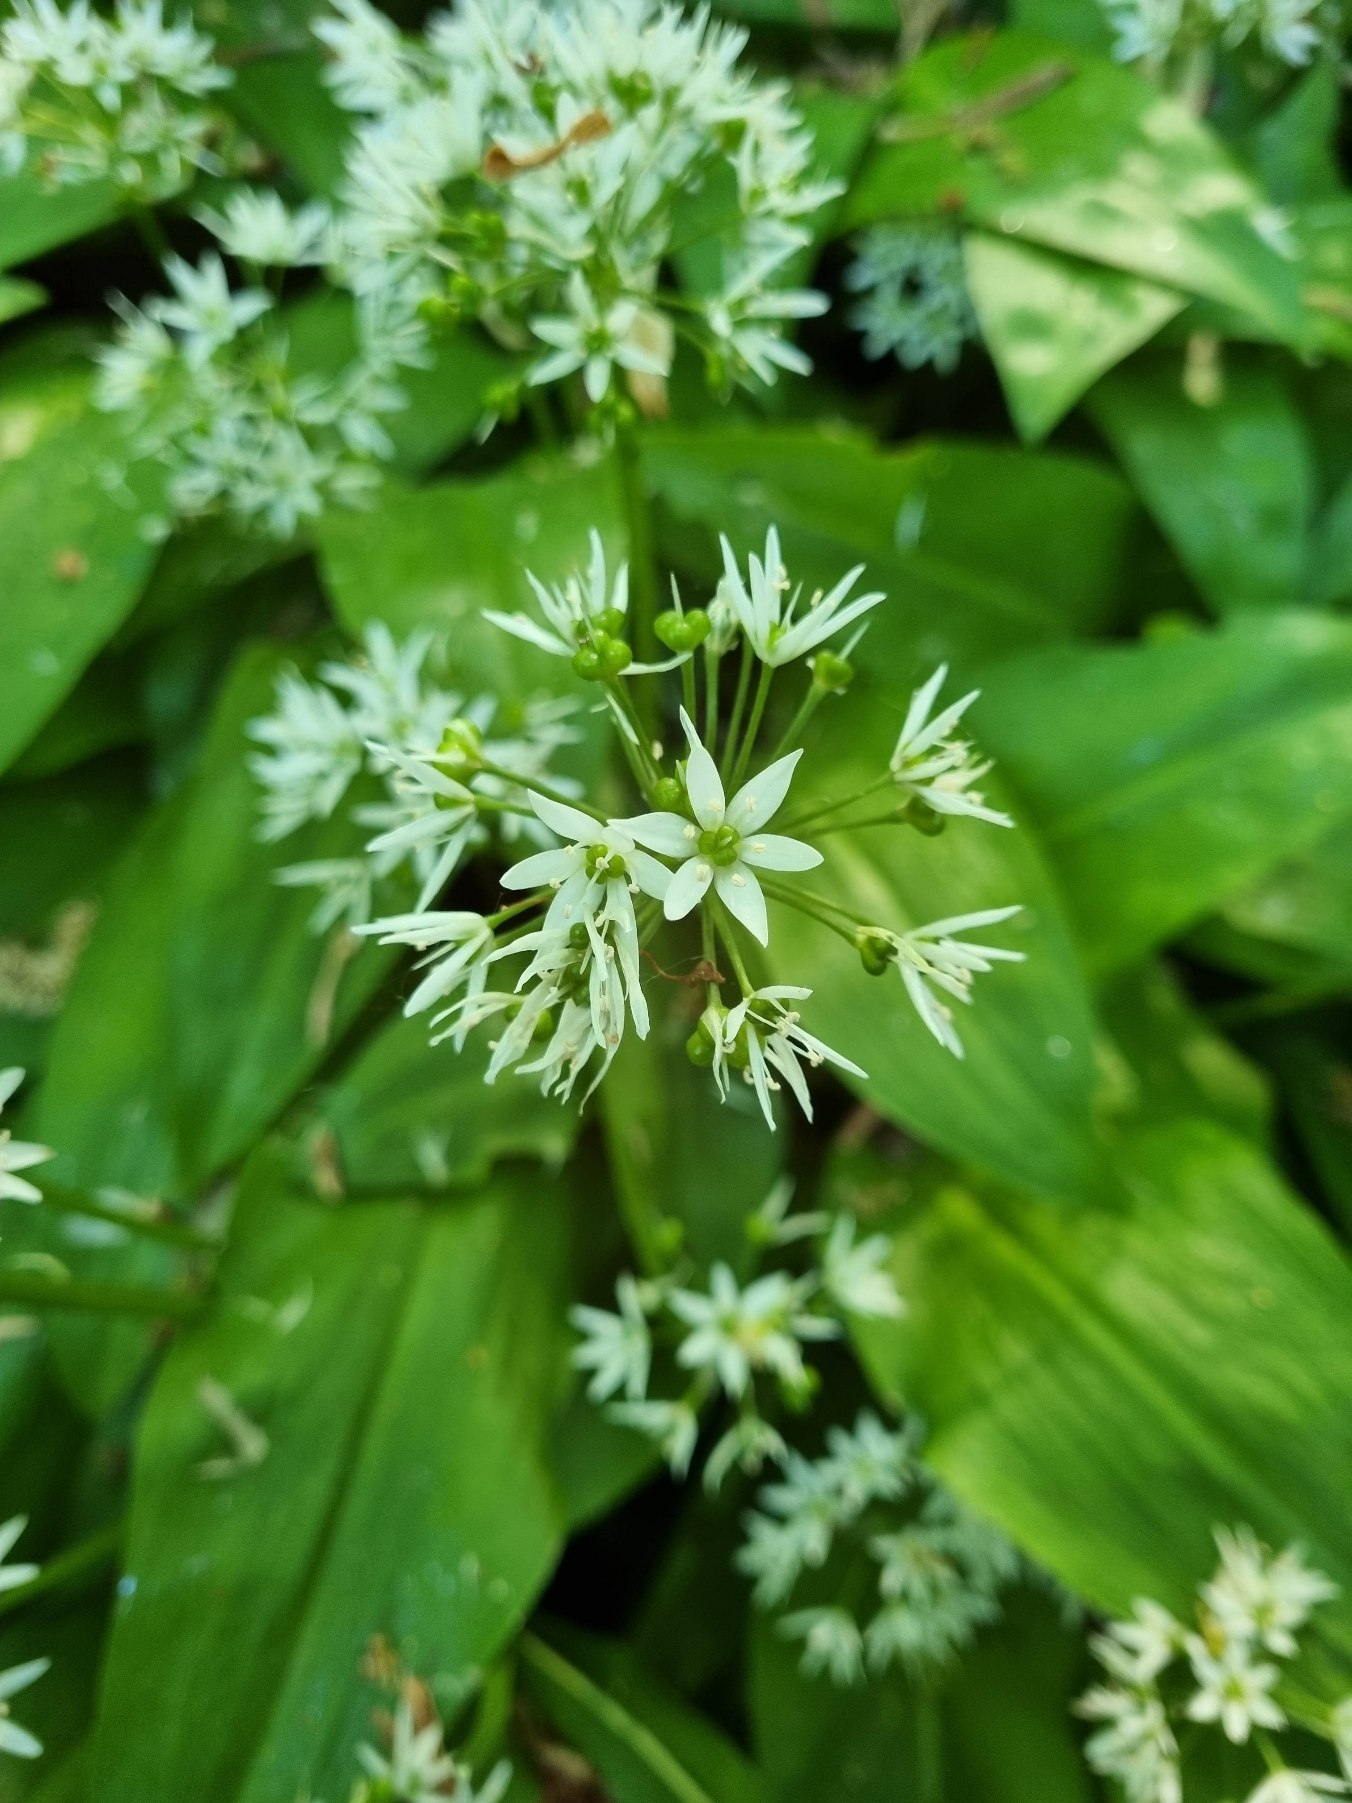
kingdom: Plantae
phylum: Tracheophyta
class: Liliopsida
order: Asparagales
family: Amaryllidaceae
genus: Allium
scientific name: Allium ursinum
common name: Rams-løg
